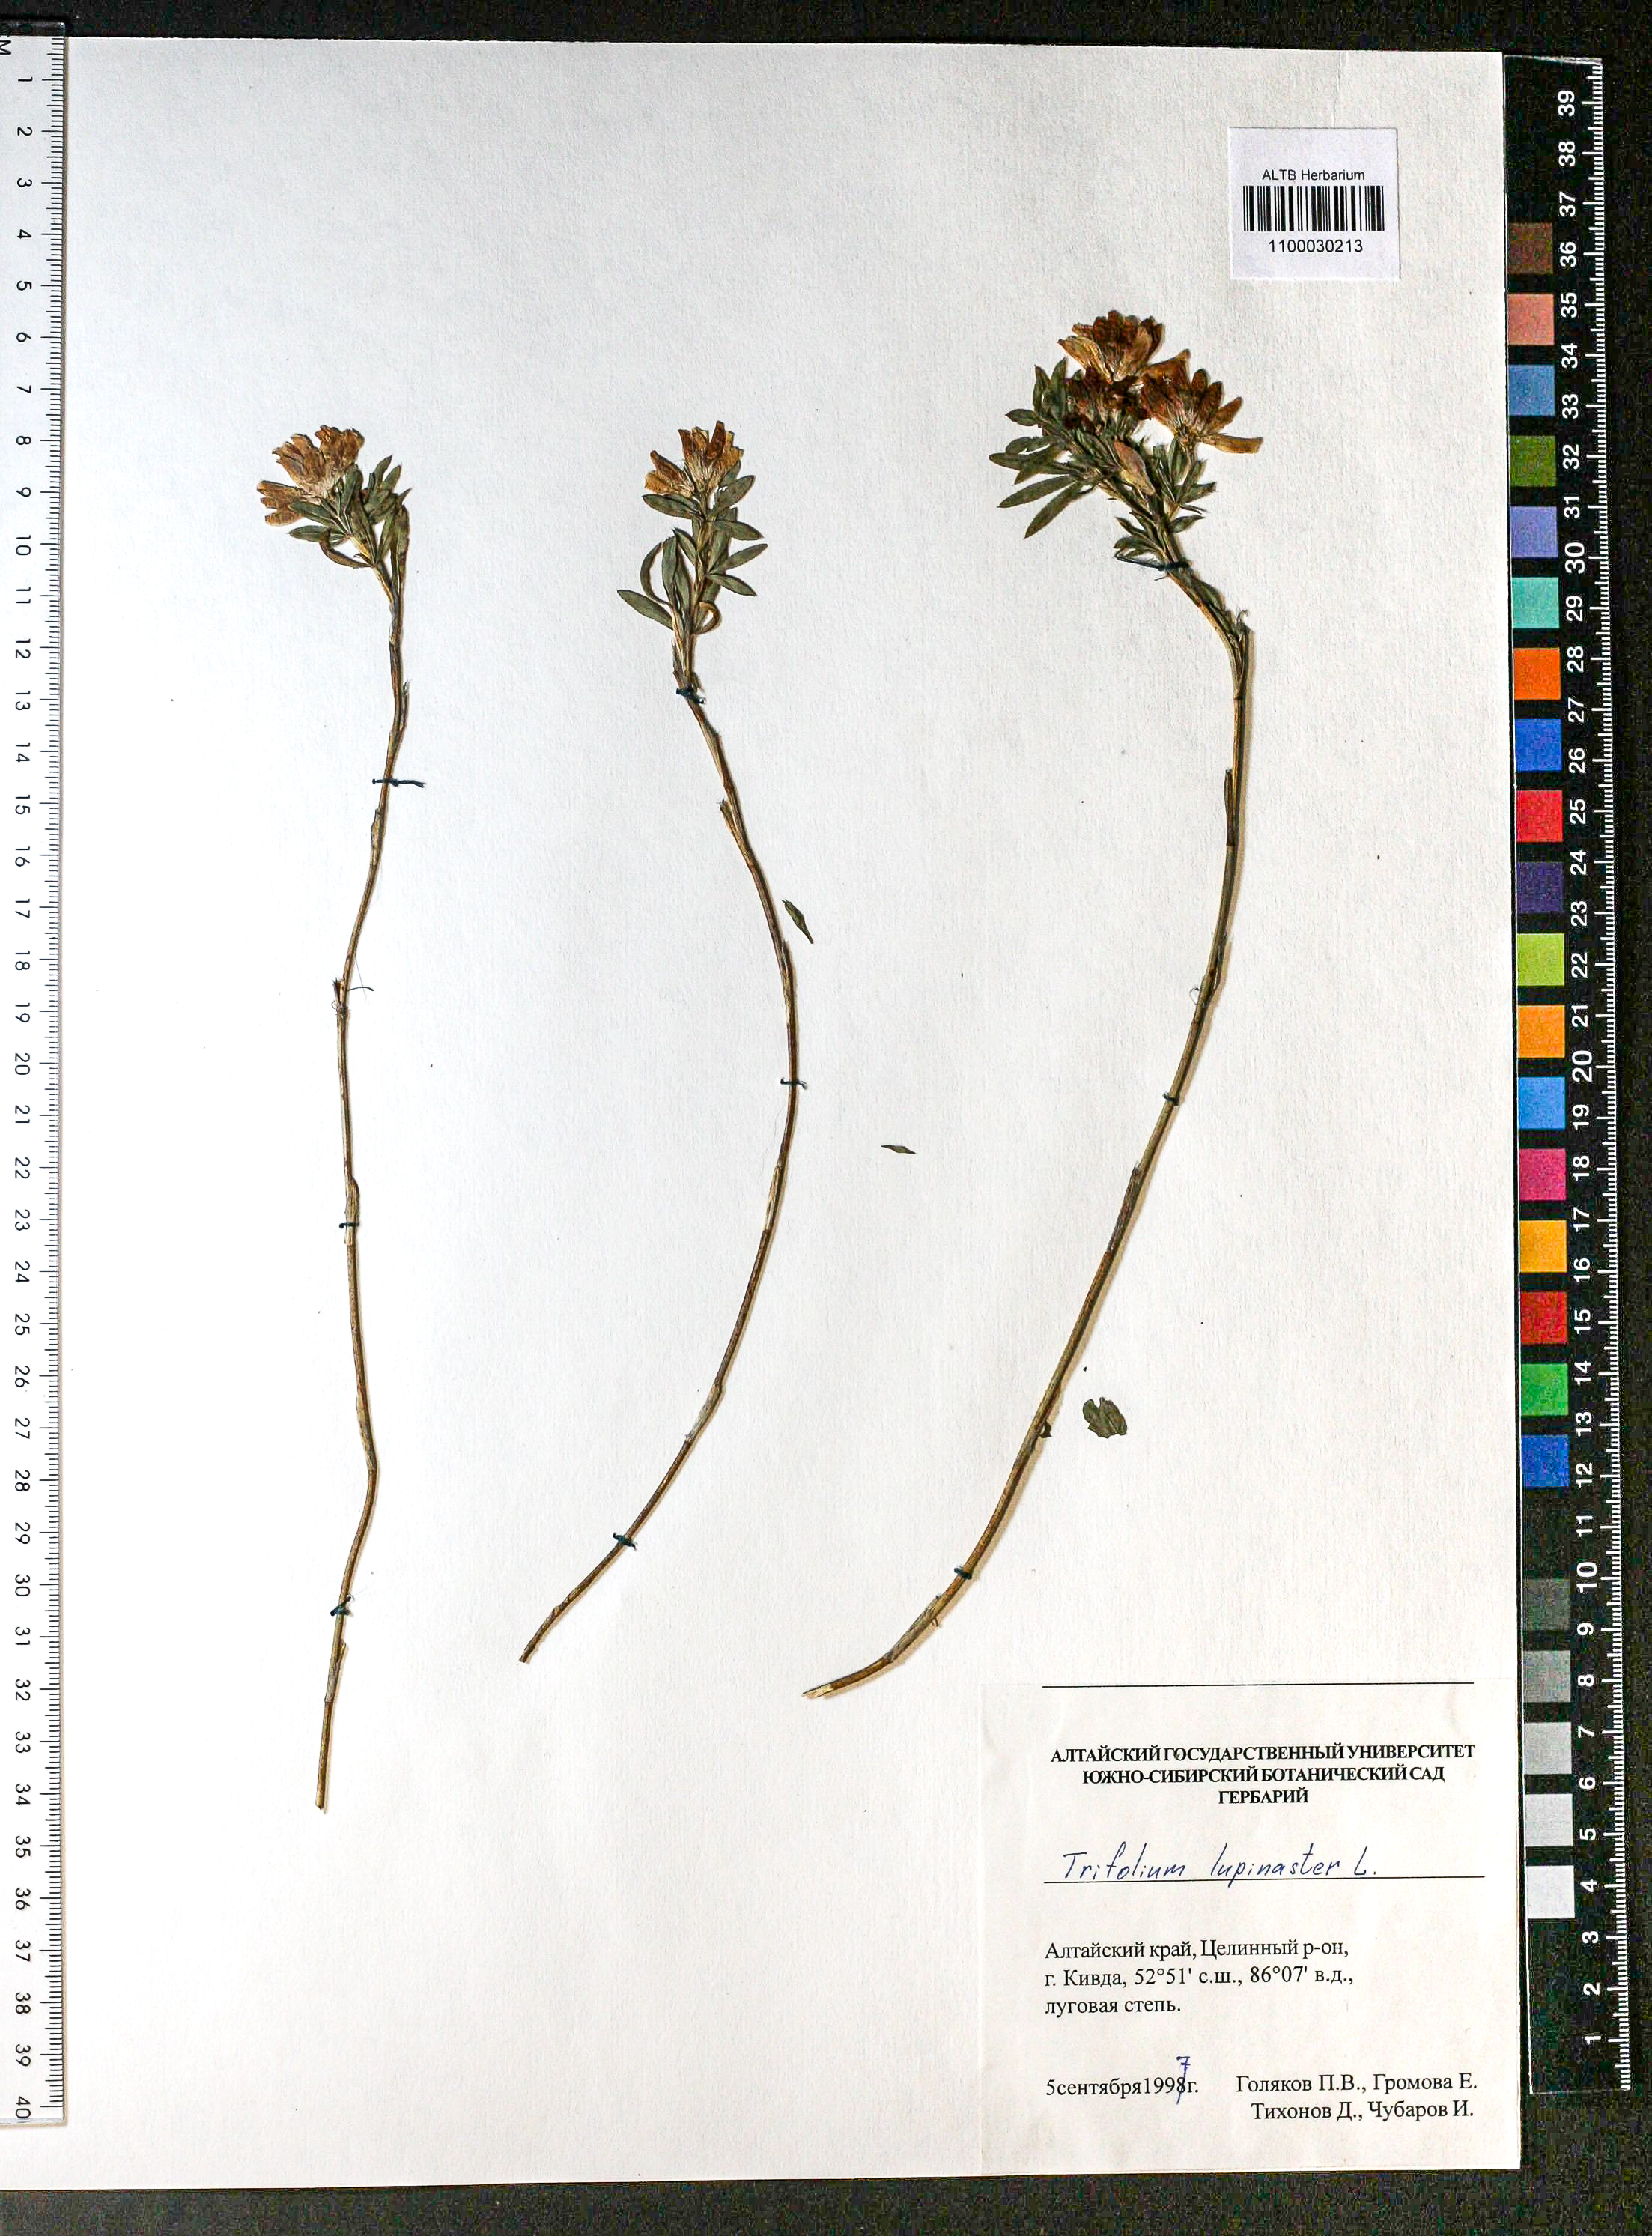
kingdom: Plantae
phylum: Tracheophyta
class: Magnoliopsida
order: Fabales
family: Fabaceae
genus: Trifolium
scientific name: Trifolium lupinaster
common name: Lupine clover
